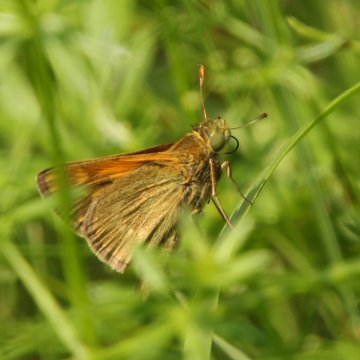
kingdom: Animalia
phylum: Arthropoda
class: Insecta
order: Lepidoptera
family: Hesperiidae
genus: Hesperia
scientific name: Hesperia sassacus
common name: Sassacus Skipper
